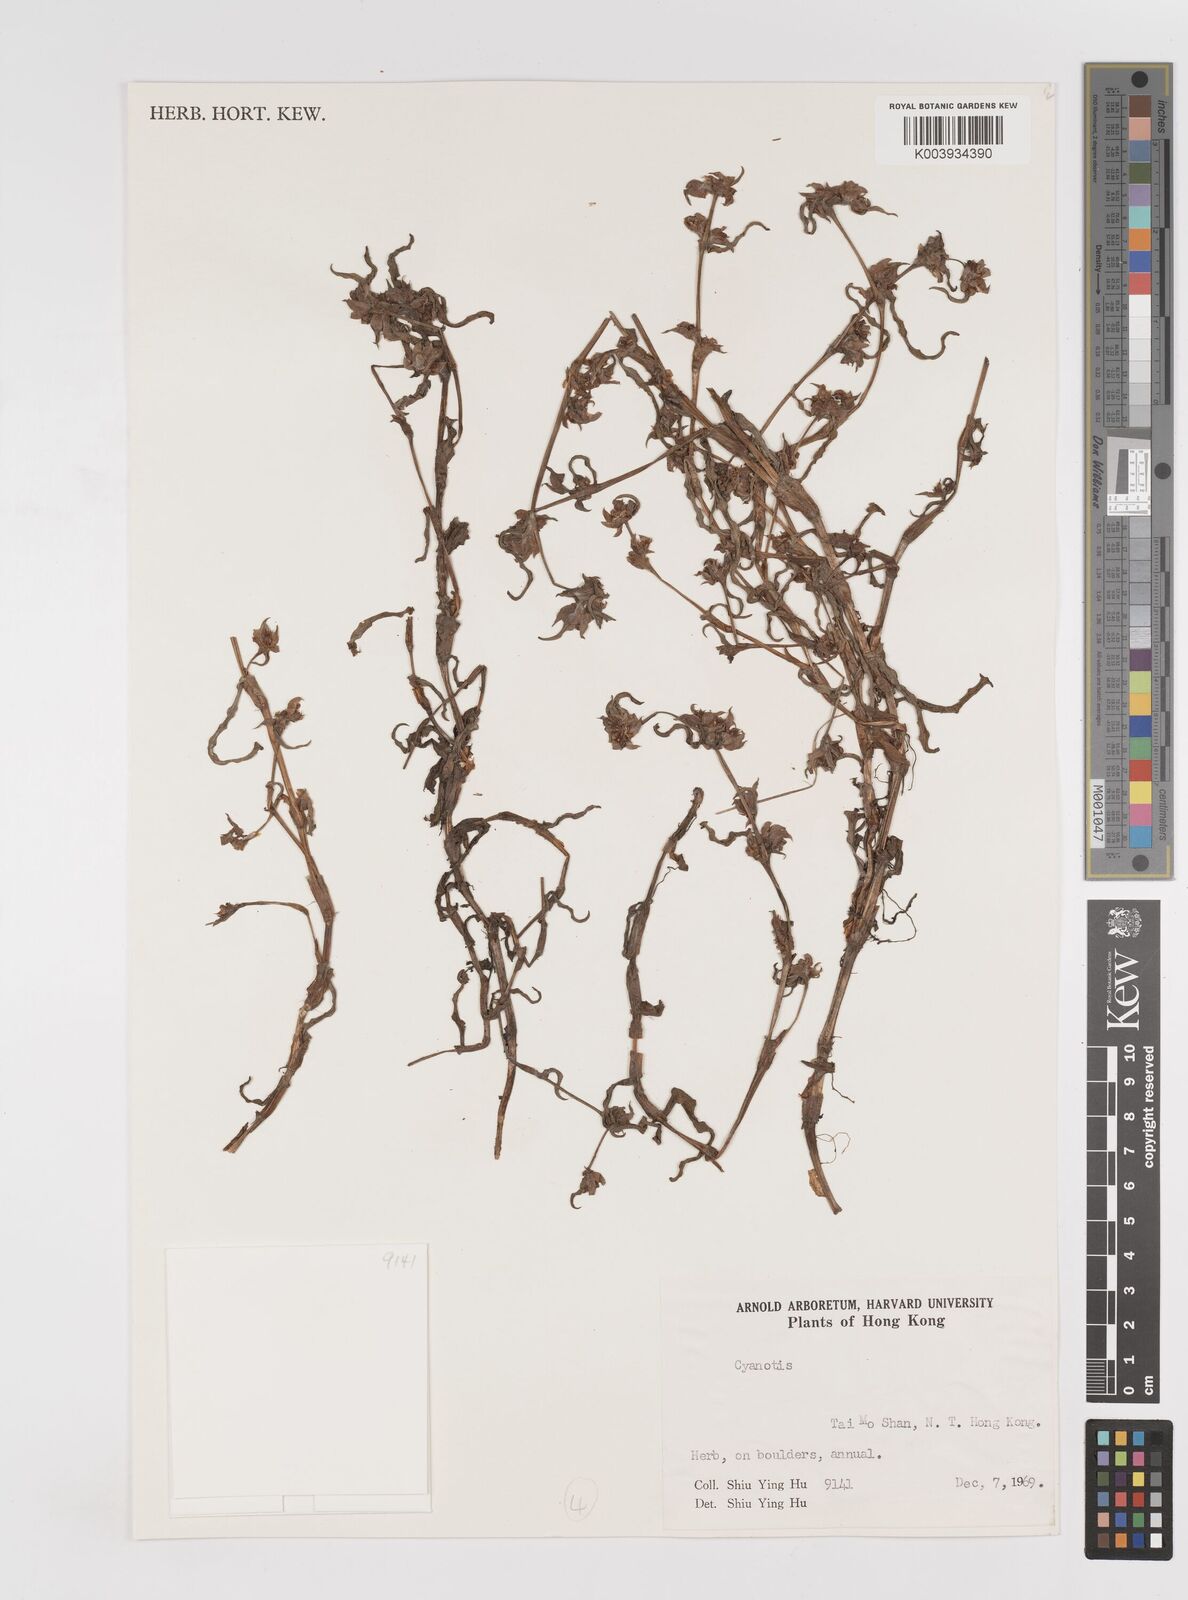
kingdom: Plantae
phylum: Tracheophyta
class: Liliopsida
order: Commelinales
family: Commelinaceae
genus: Cyanotis
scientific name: Cyanotis
